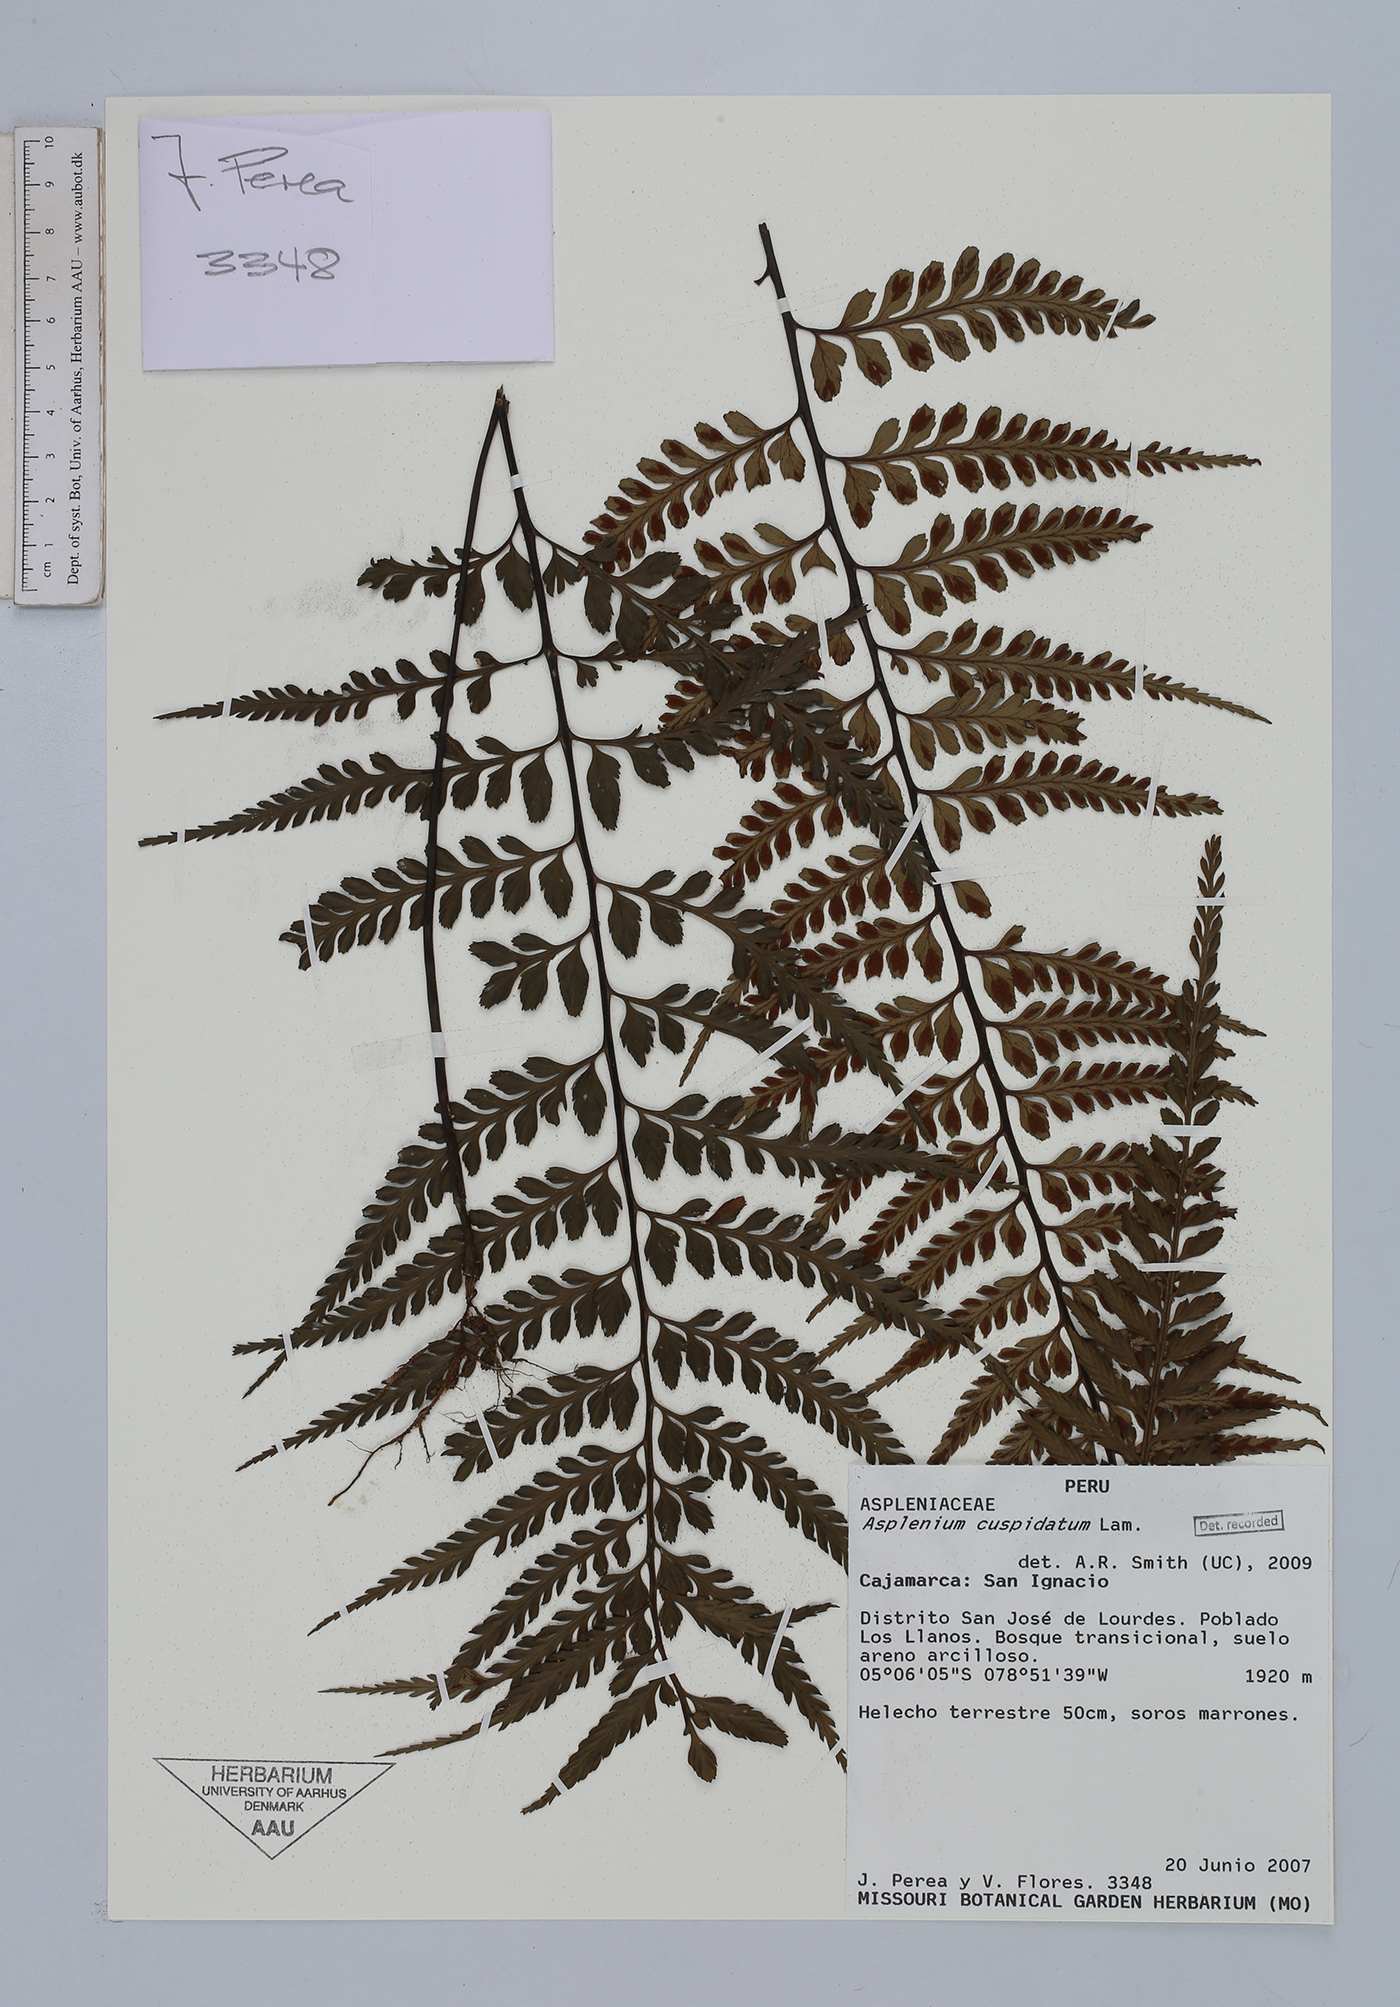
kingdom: Plantae
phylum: Tracheophyta
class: Polypodiopsida
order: Polypodiales
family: Aspleniaceae
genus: Asplenium
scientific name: Asplenium cuspidatum
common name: Eared spleenwort
